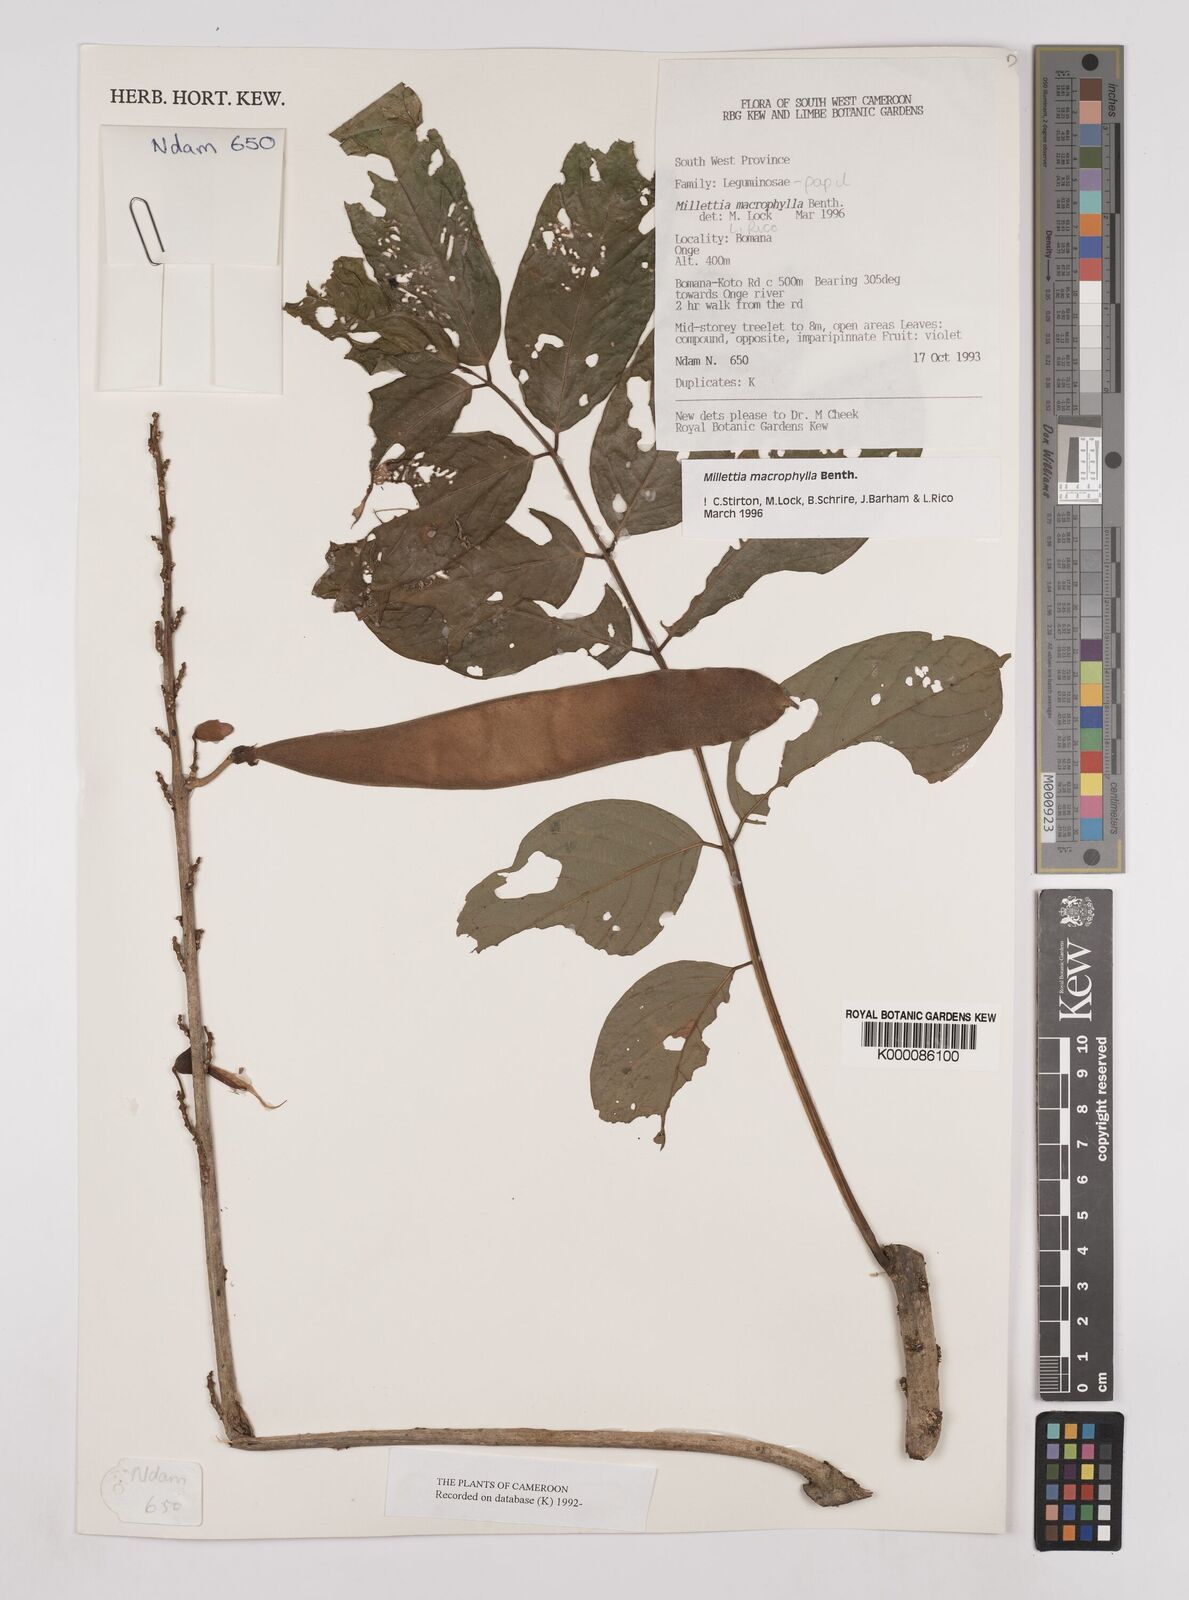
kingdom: Plantae
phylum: Tracheophyta
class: Magnoliopsida
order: Fabales
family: Fabaceae
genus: Millettia
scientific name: Millettia macrophylla
